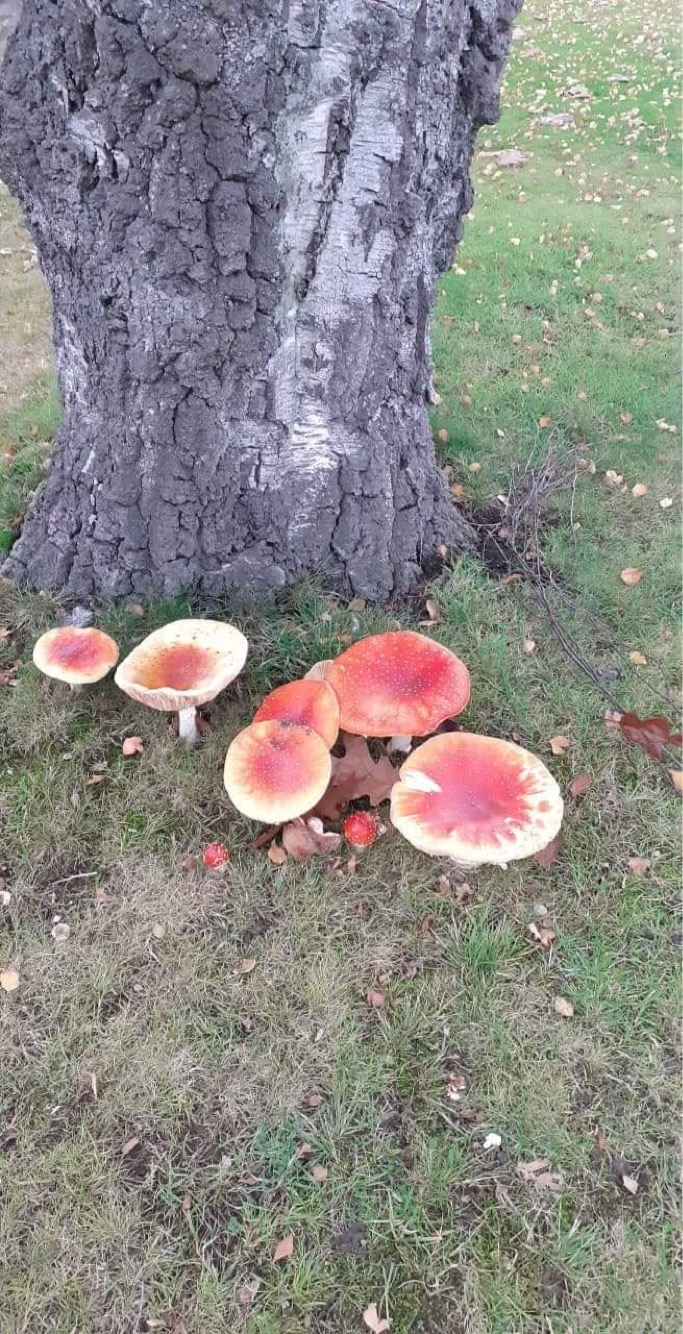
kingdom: Fungi
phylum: Basidiomycota
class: Agaricomycetes
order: Agaricales
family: Amanitaceae
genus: Amanita
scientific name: Amanita muscaria
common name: rød fluesvamp
